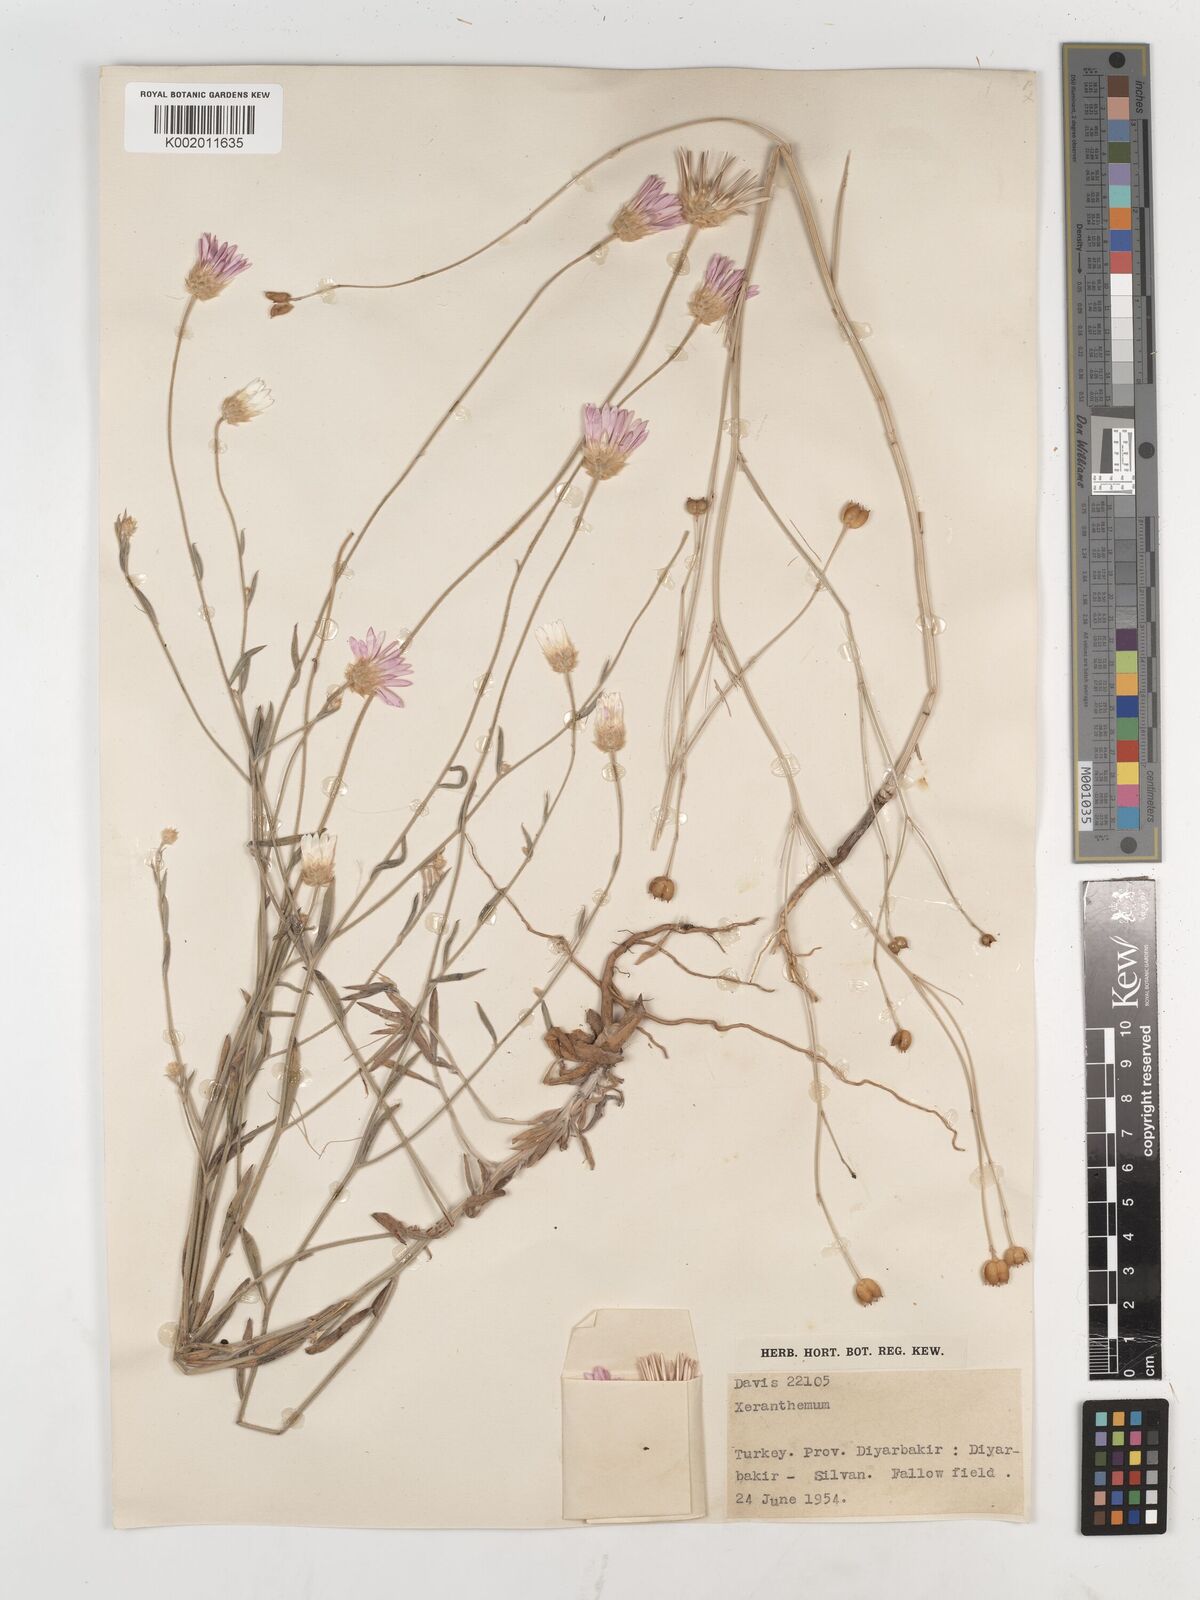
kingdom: Plantae
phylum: Tracheophyta
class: Magnoliopsida
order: Asterales
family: Asteraceae
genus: Xeranthemum
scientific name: Xeranthemum annuum
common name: Immortelle
